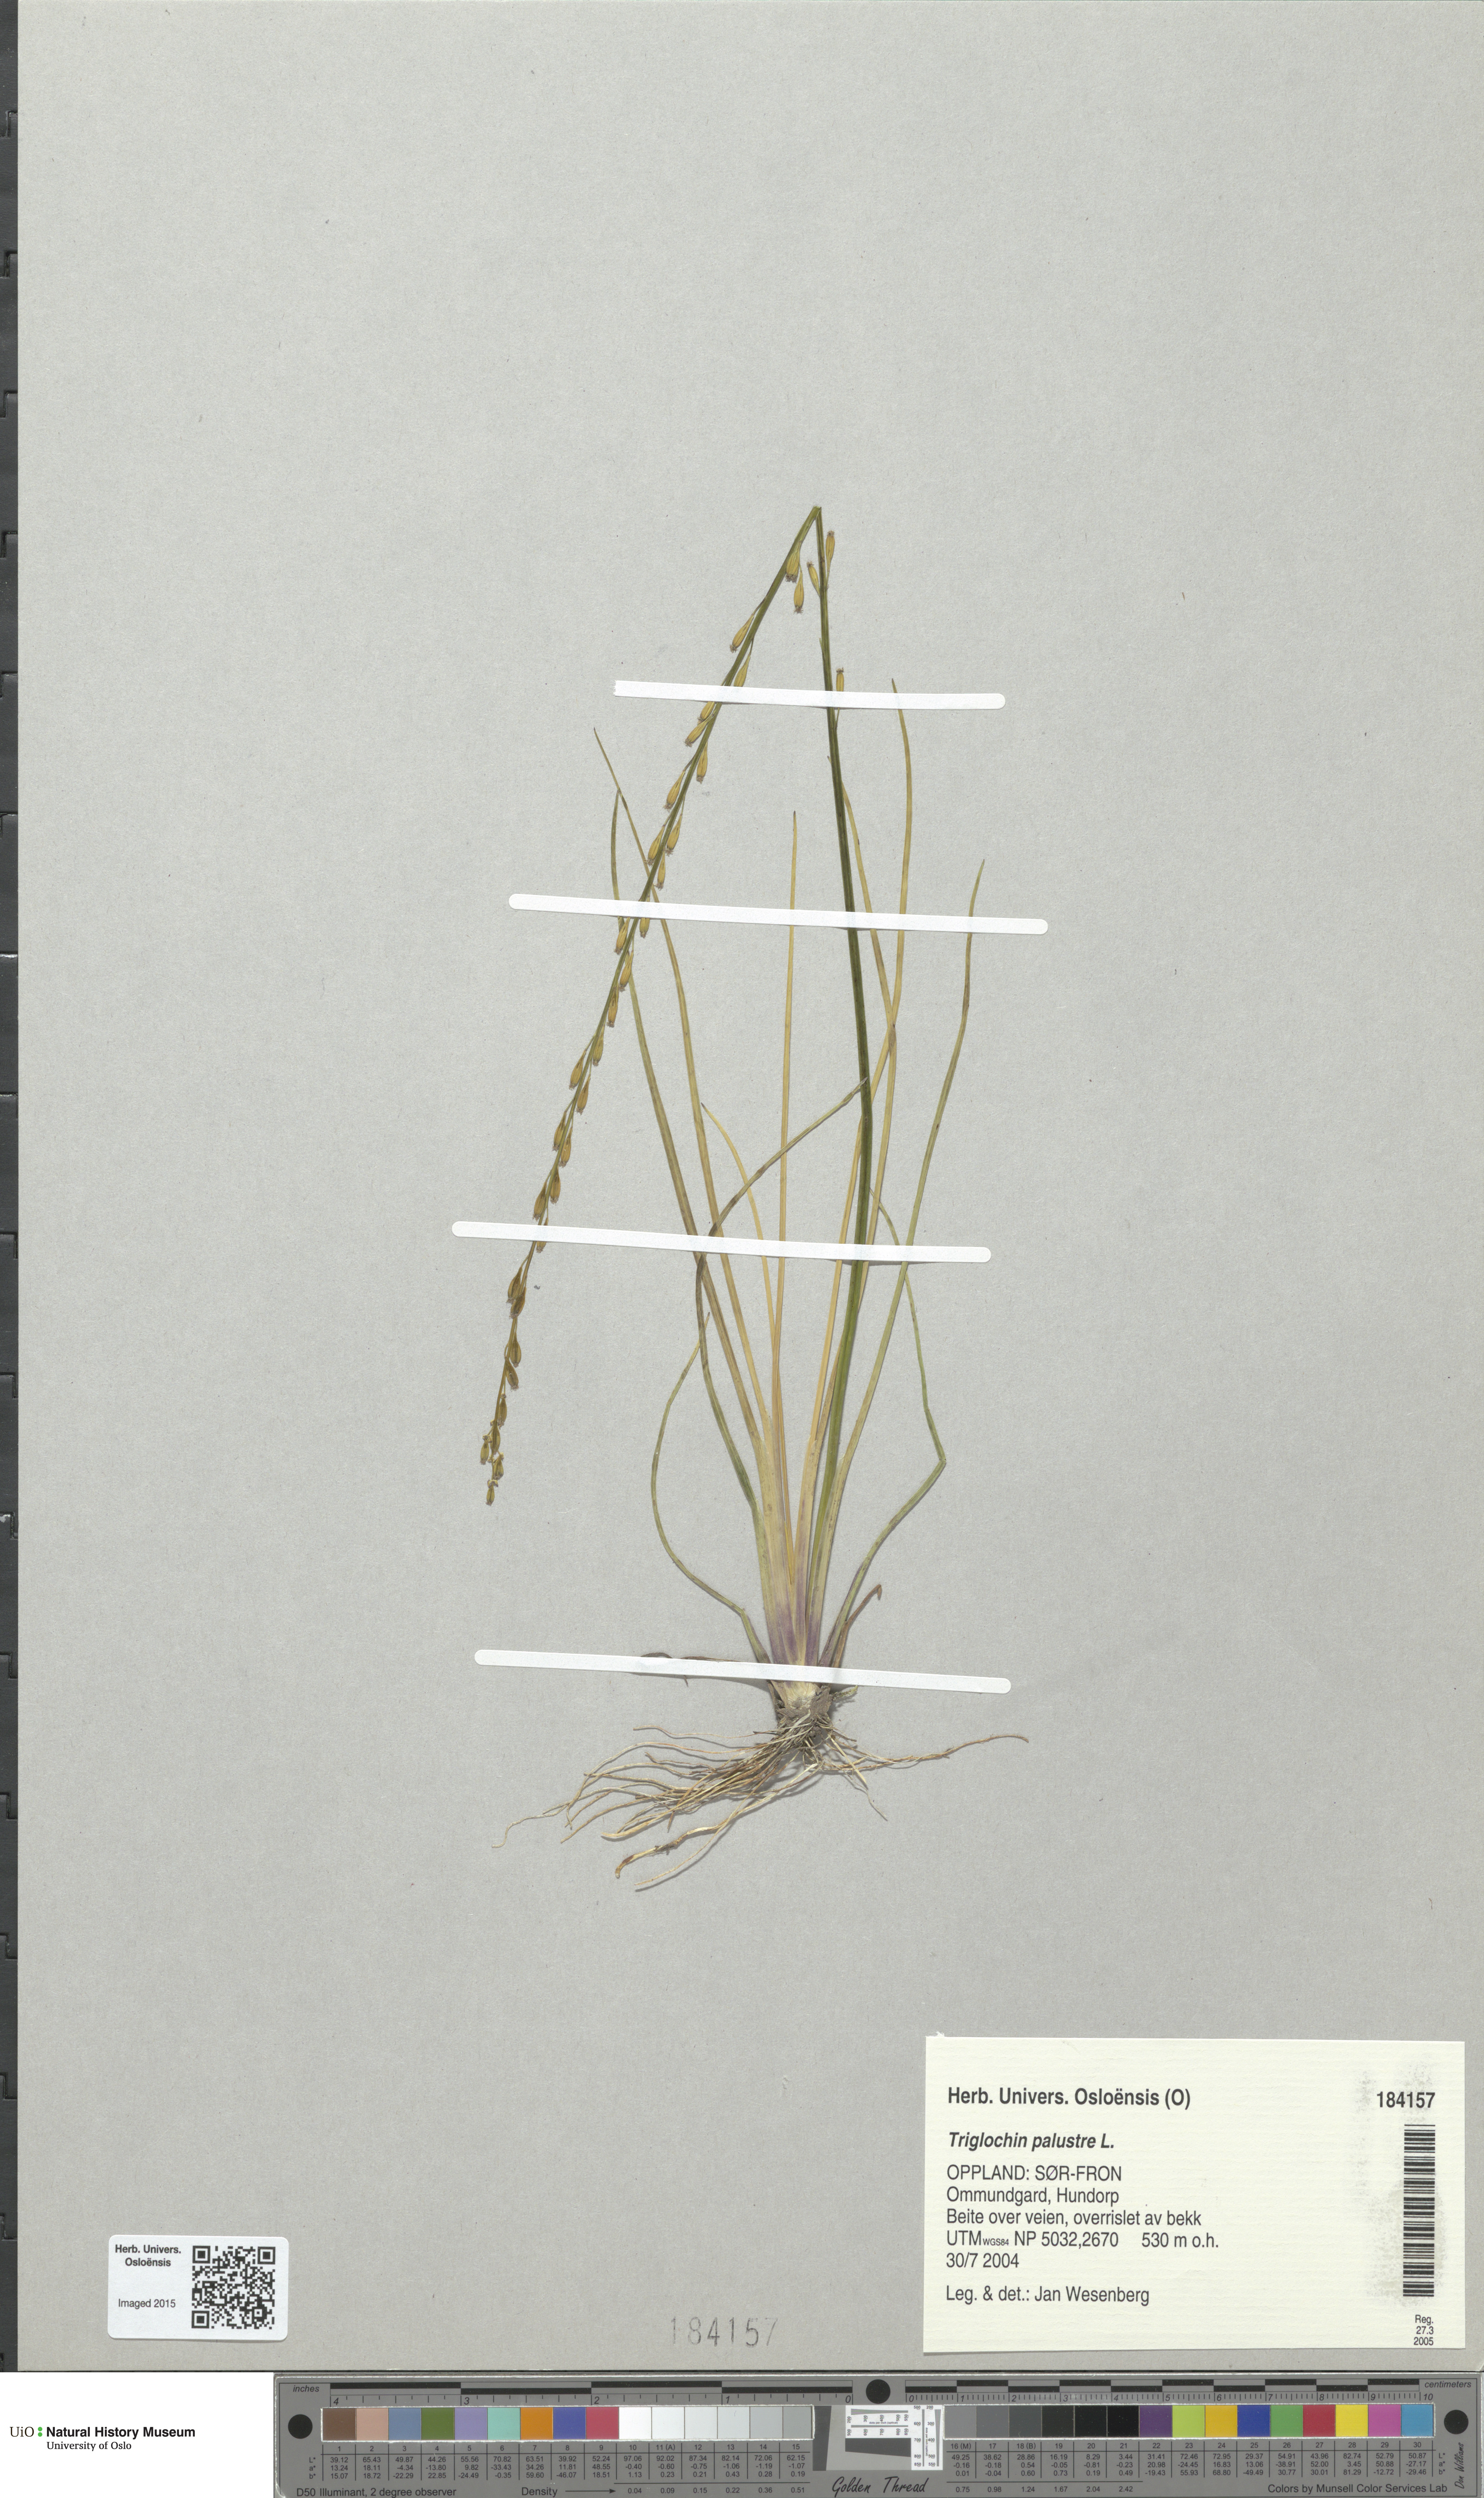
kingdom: Plantae
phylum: Tracheophyta
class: Liliopsida
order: Alismatales
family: Juncaginaceae
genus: Triglochin
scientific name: Triglochin palustris
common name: Marsh arrowgrass
